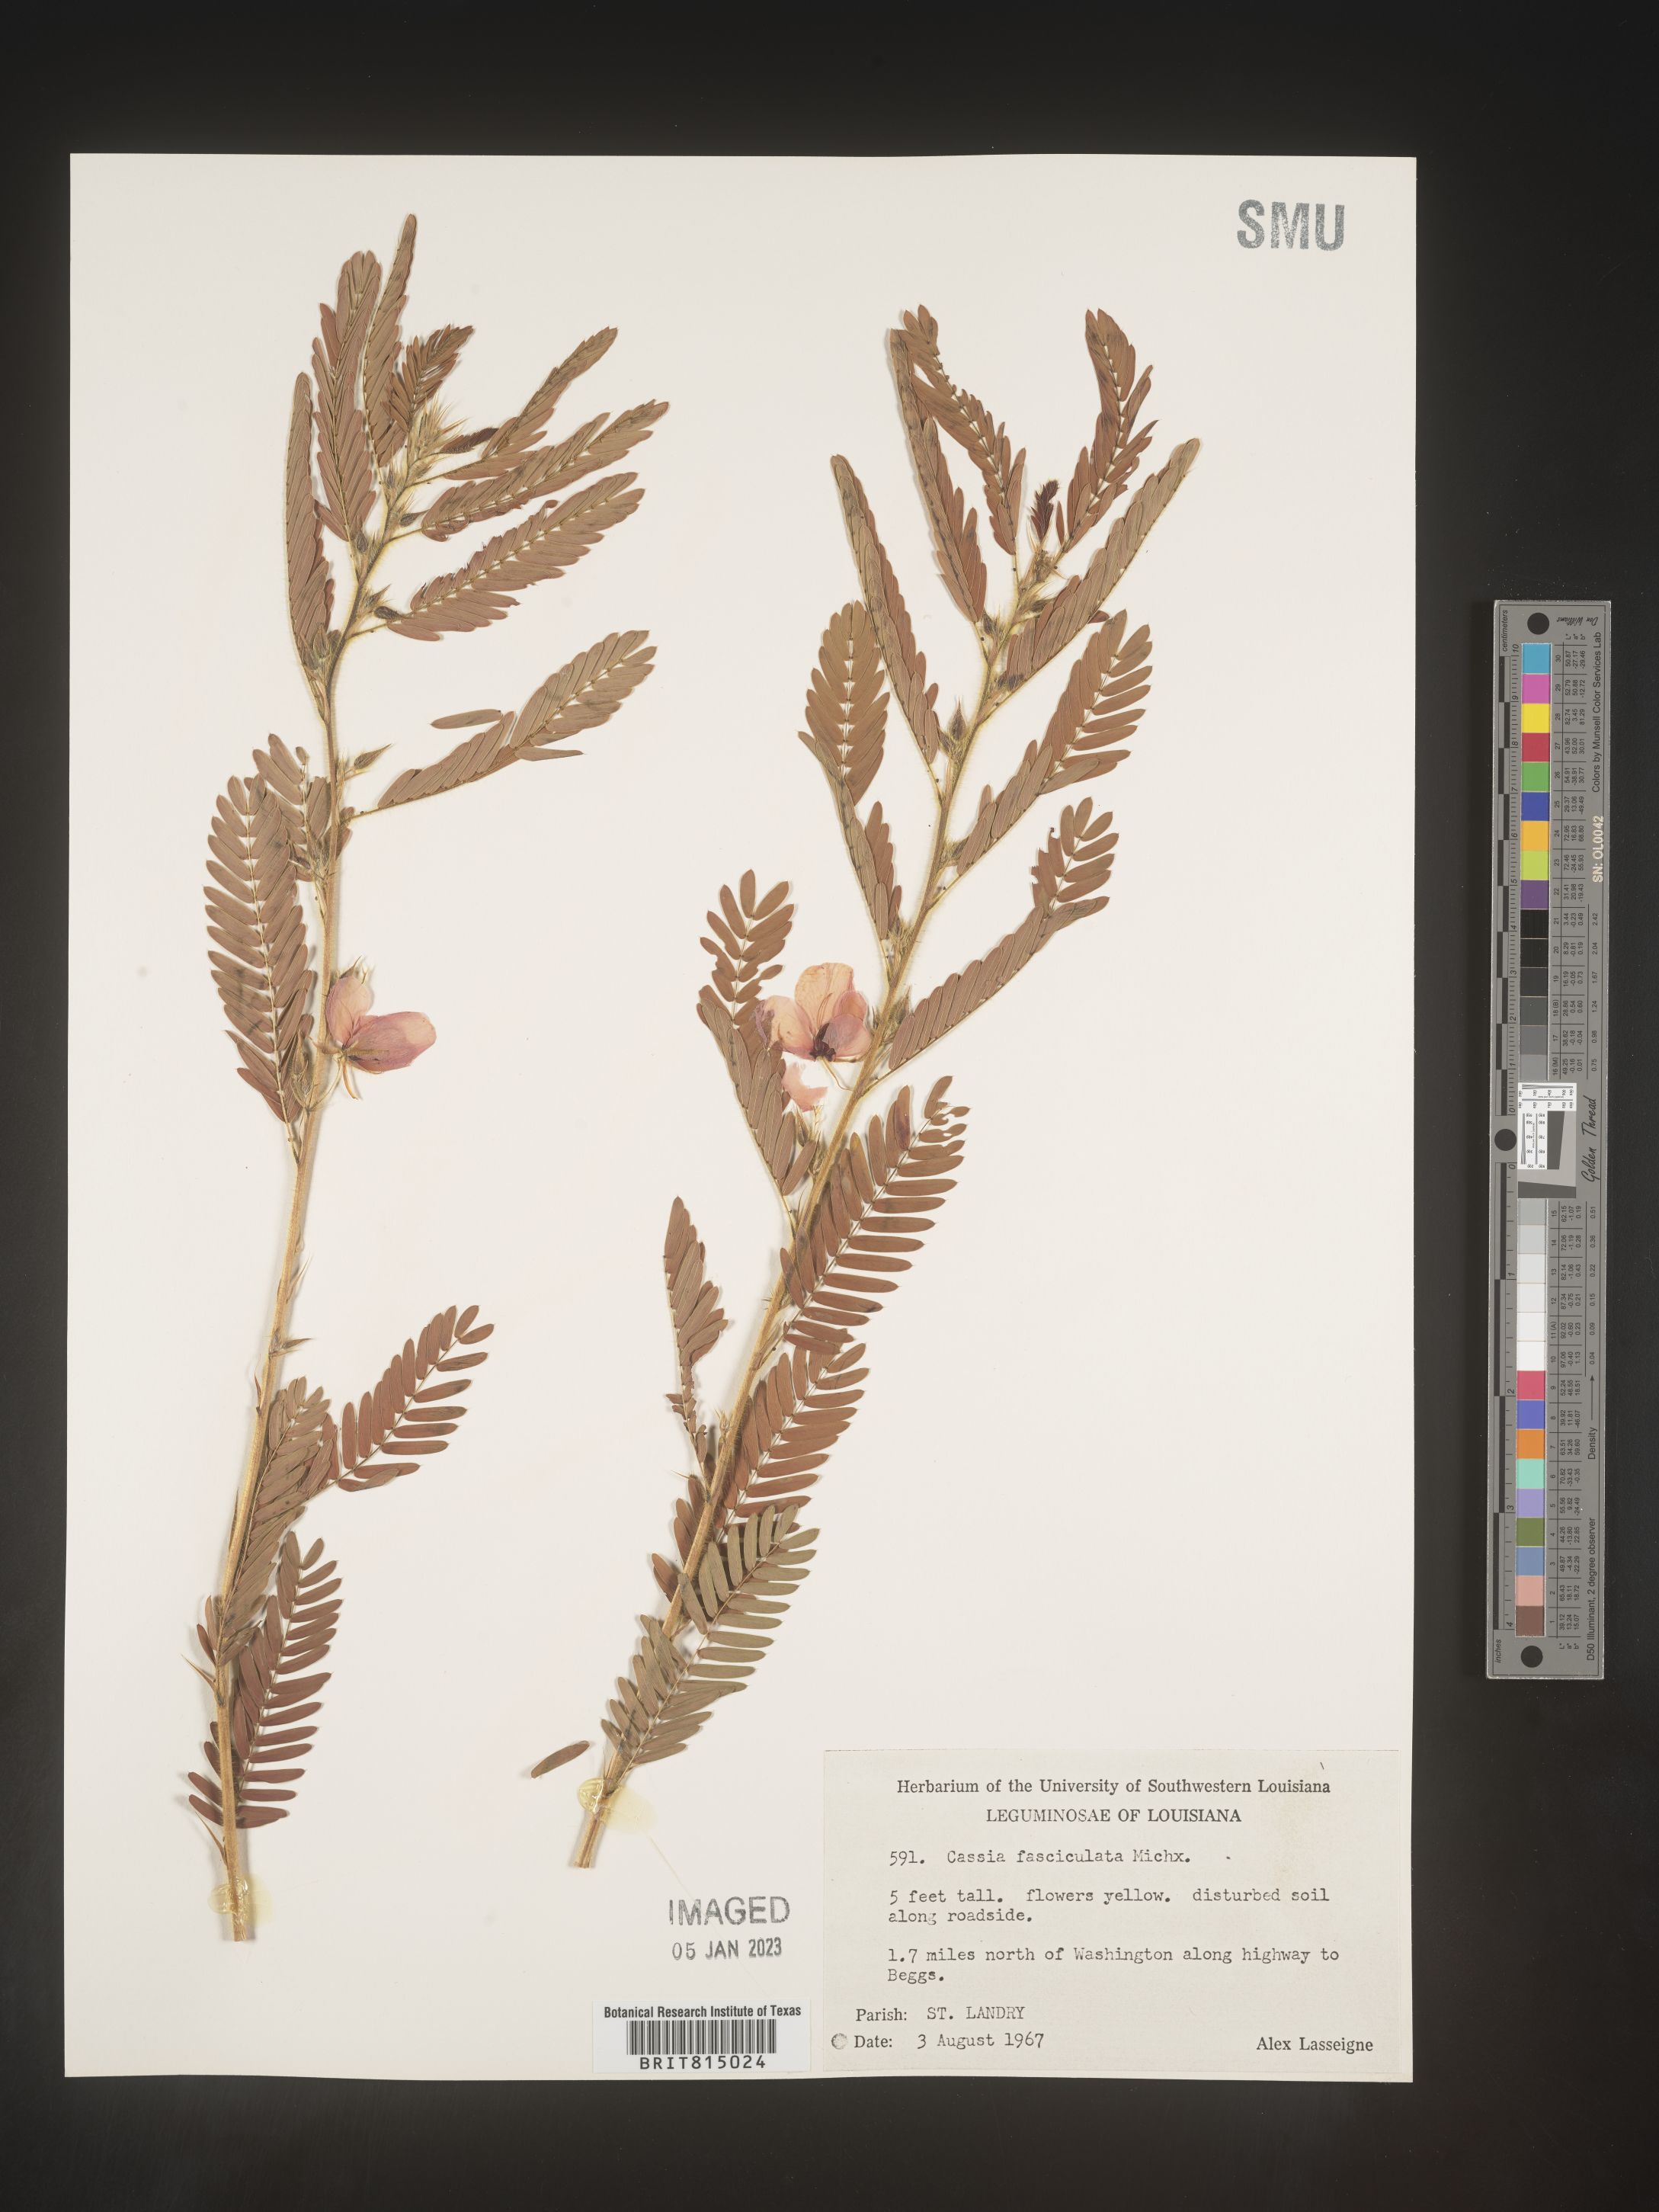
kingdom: Plantae
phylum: Tracheophyta
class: Magnoliopsida
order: Fabales
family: Fabaceae
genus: Chamaecrista
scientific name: Chamaecrista fasciculata
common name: Golden cassia
